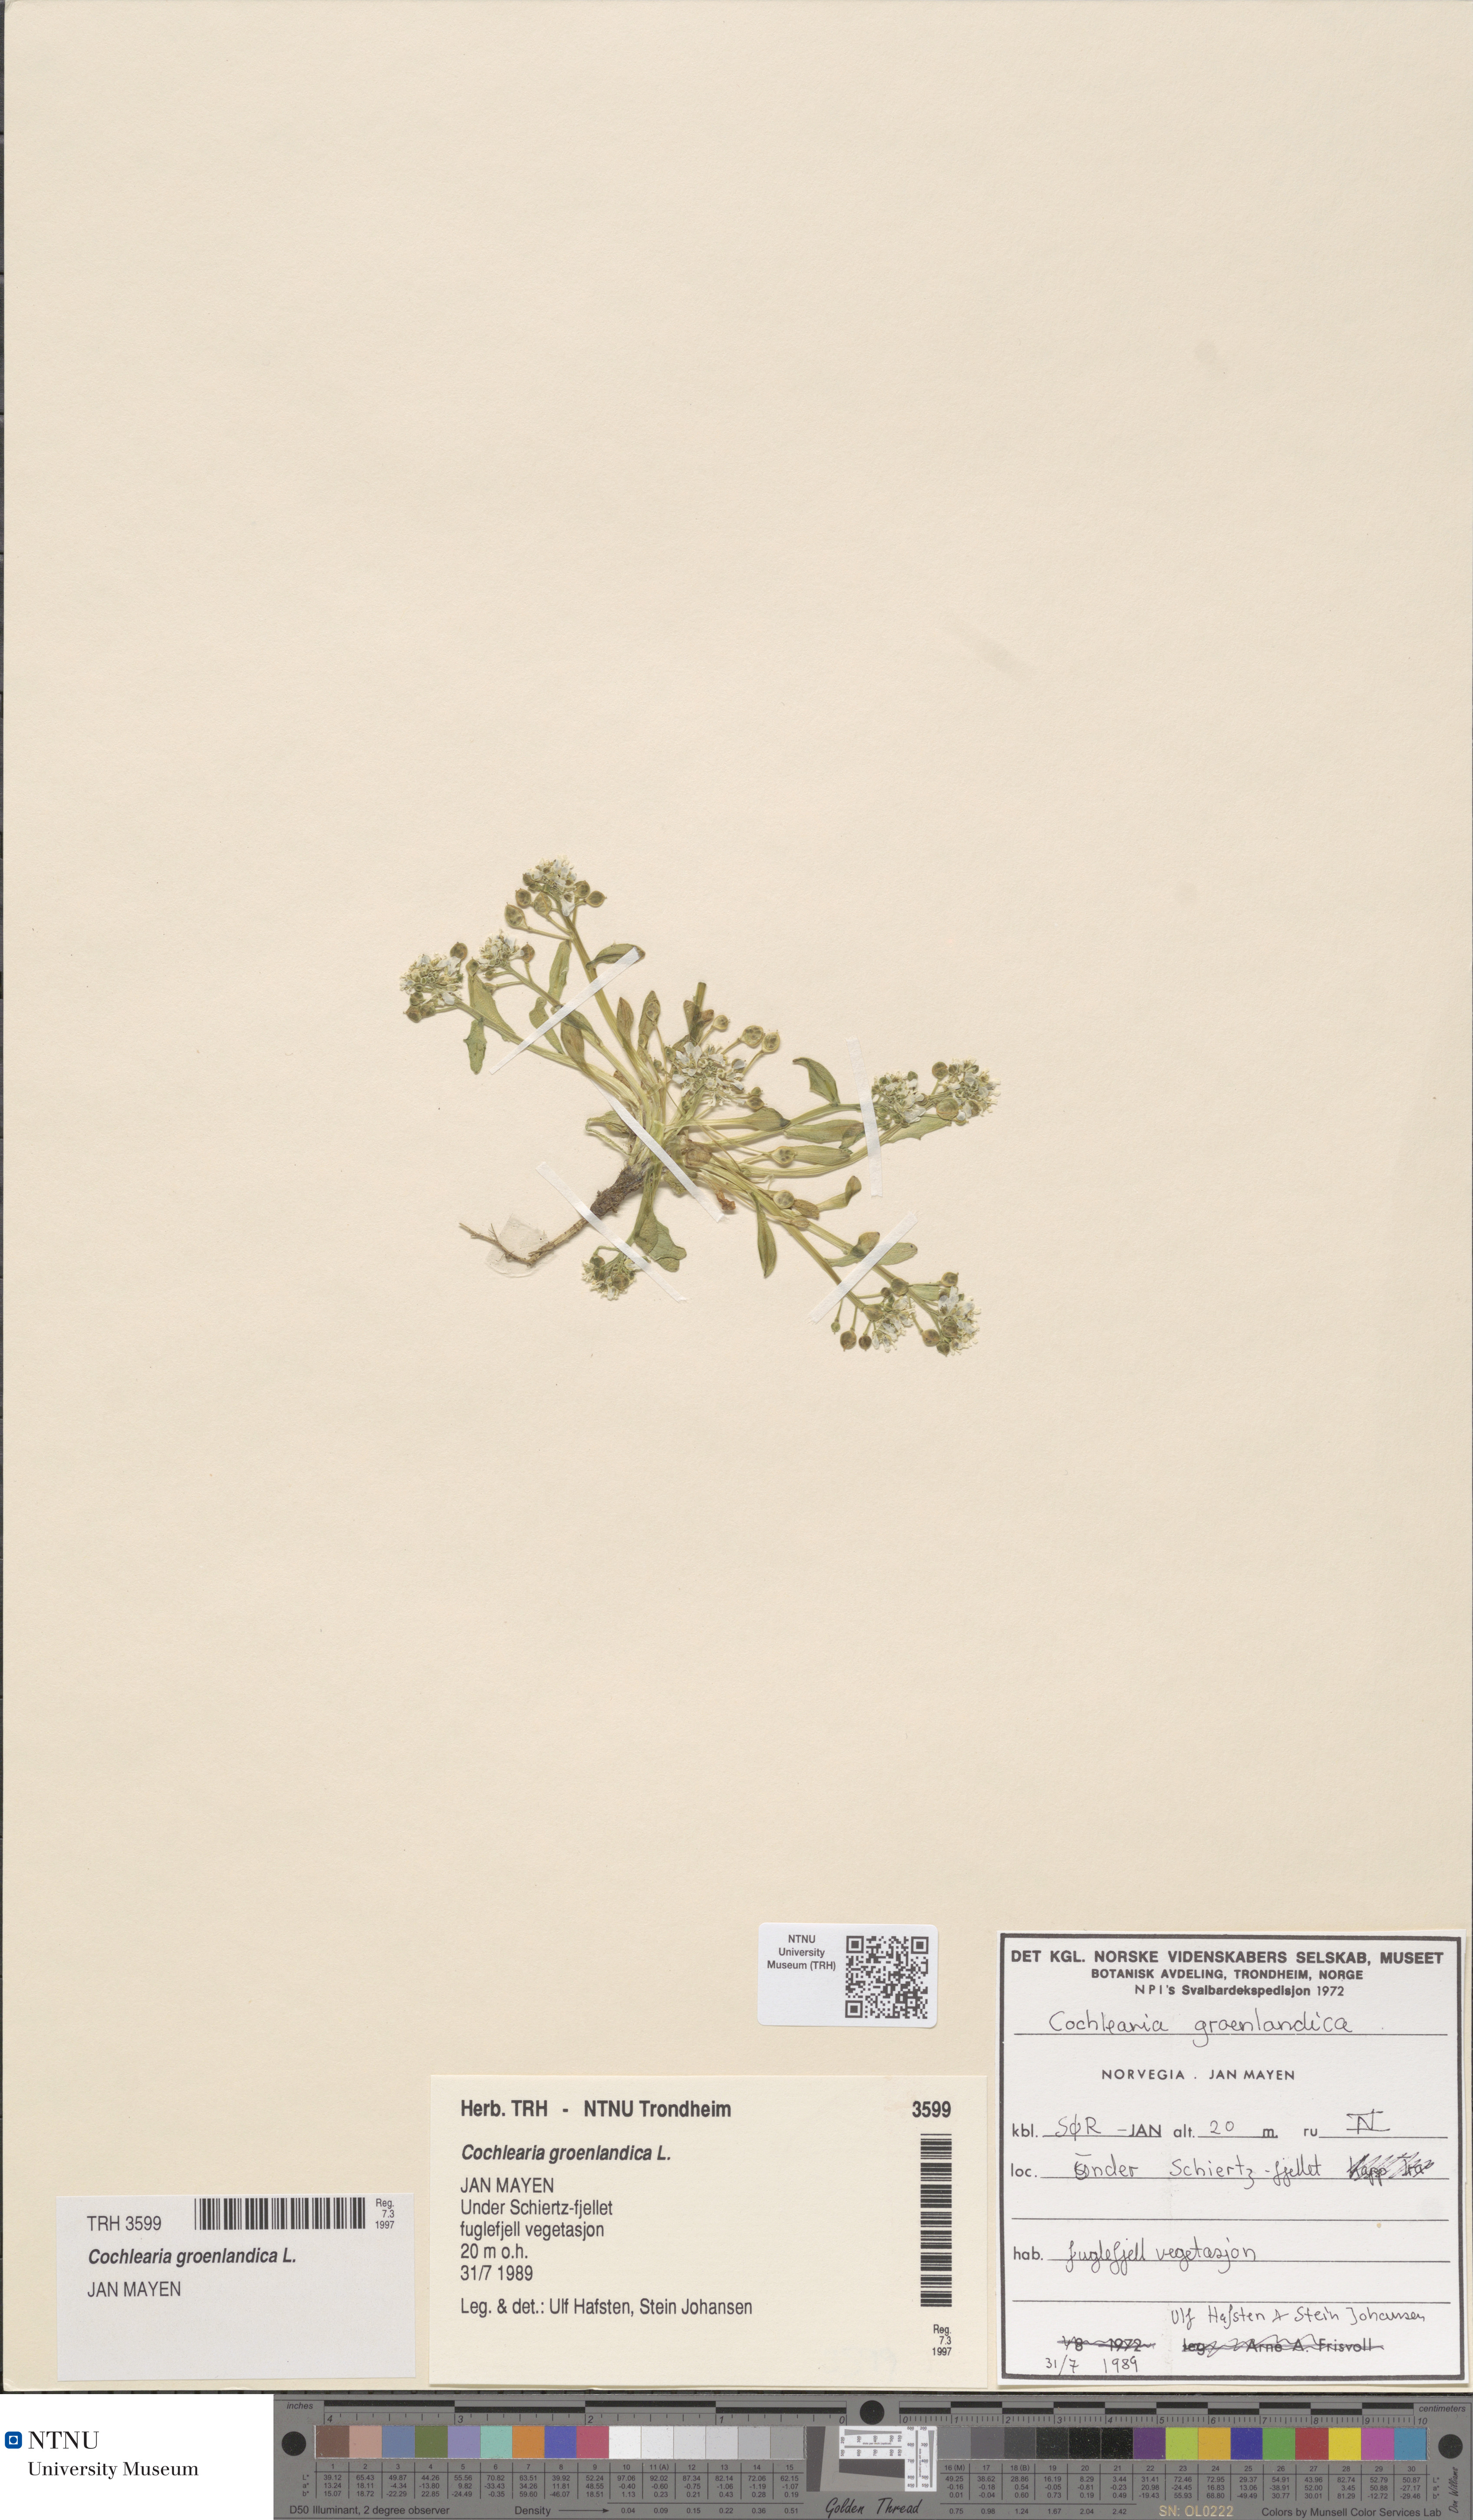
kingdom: Plantae
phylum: Tracheophyta
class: Magnoliopsida
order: Brassicales
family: Brassicaceae
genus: Cochlearia
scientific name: Cochlearia groenlandica
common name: Danish scurvygrass
